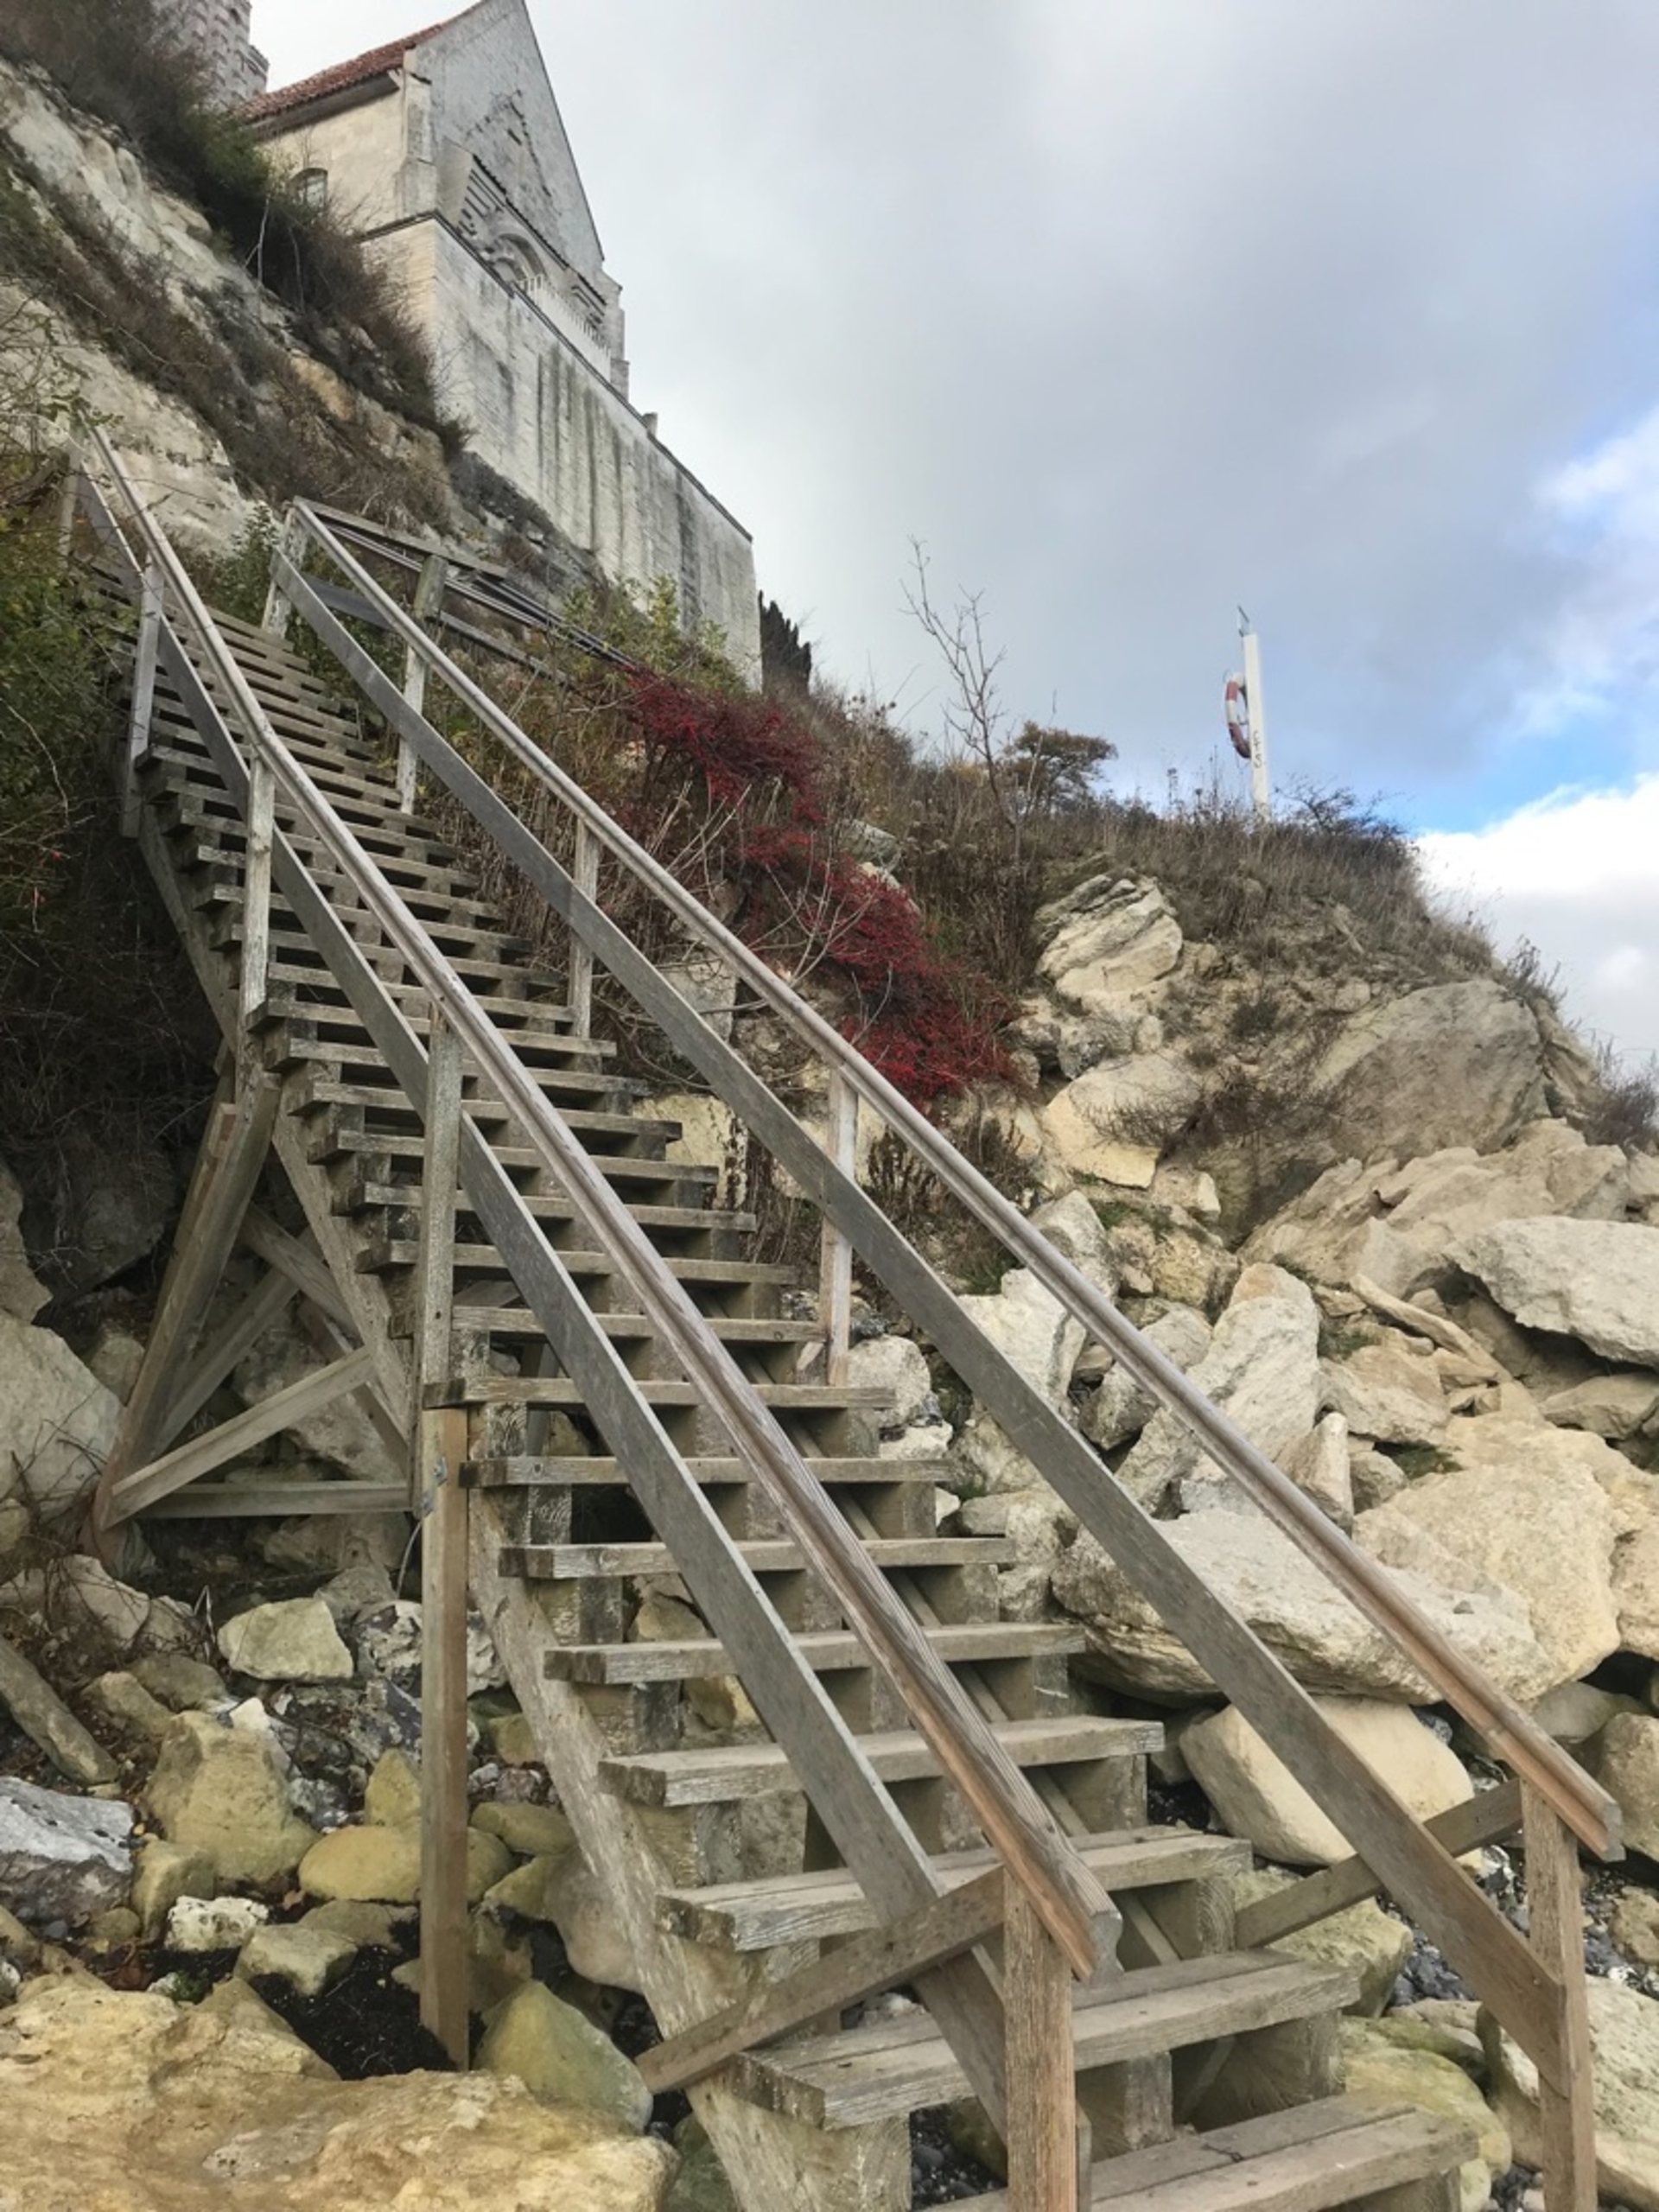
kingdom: Animalia
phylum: Arthropoda
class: Insecta
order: Lepidoptera
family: Nymphalidae
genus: Vanessa
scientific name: Vanessa atalanta
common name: Admiral
